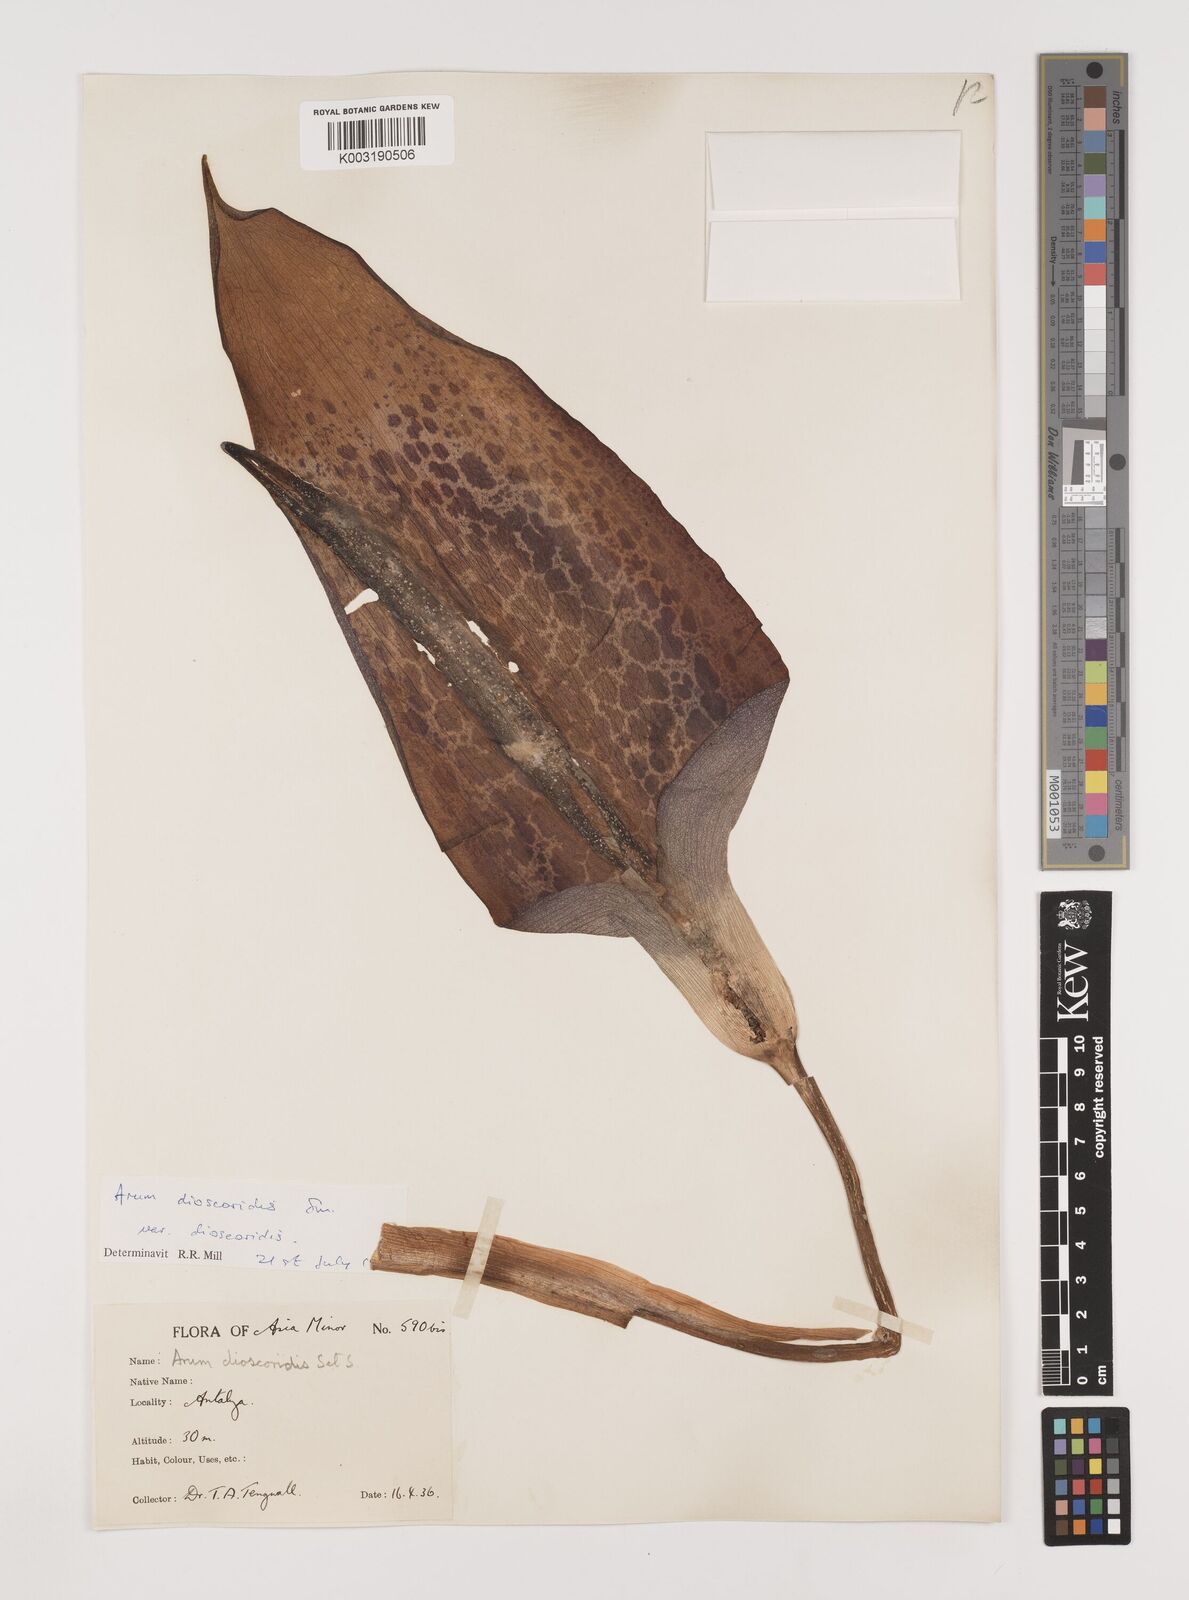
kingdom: Plantae
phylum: Tracheophyta
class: Liliopsida
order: Alismatales
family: Araceae
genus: Arum
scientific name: Arum dioscoridis
